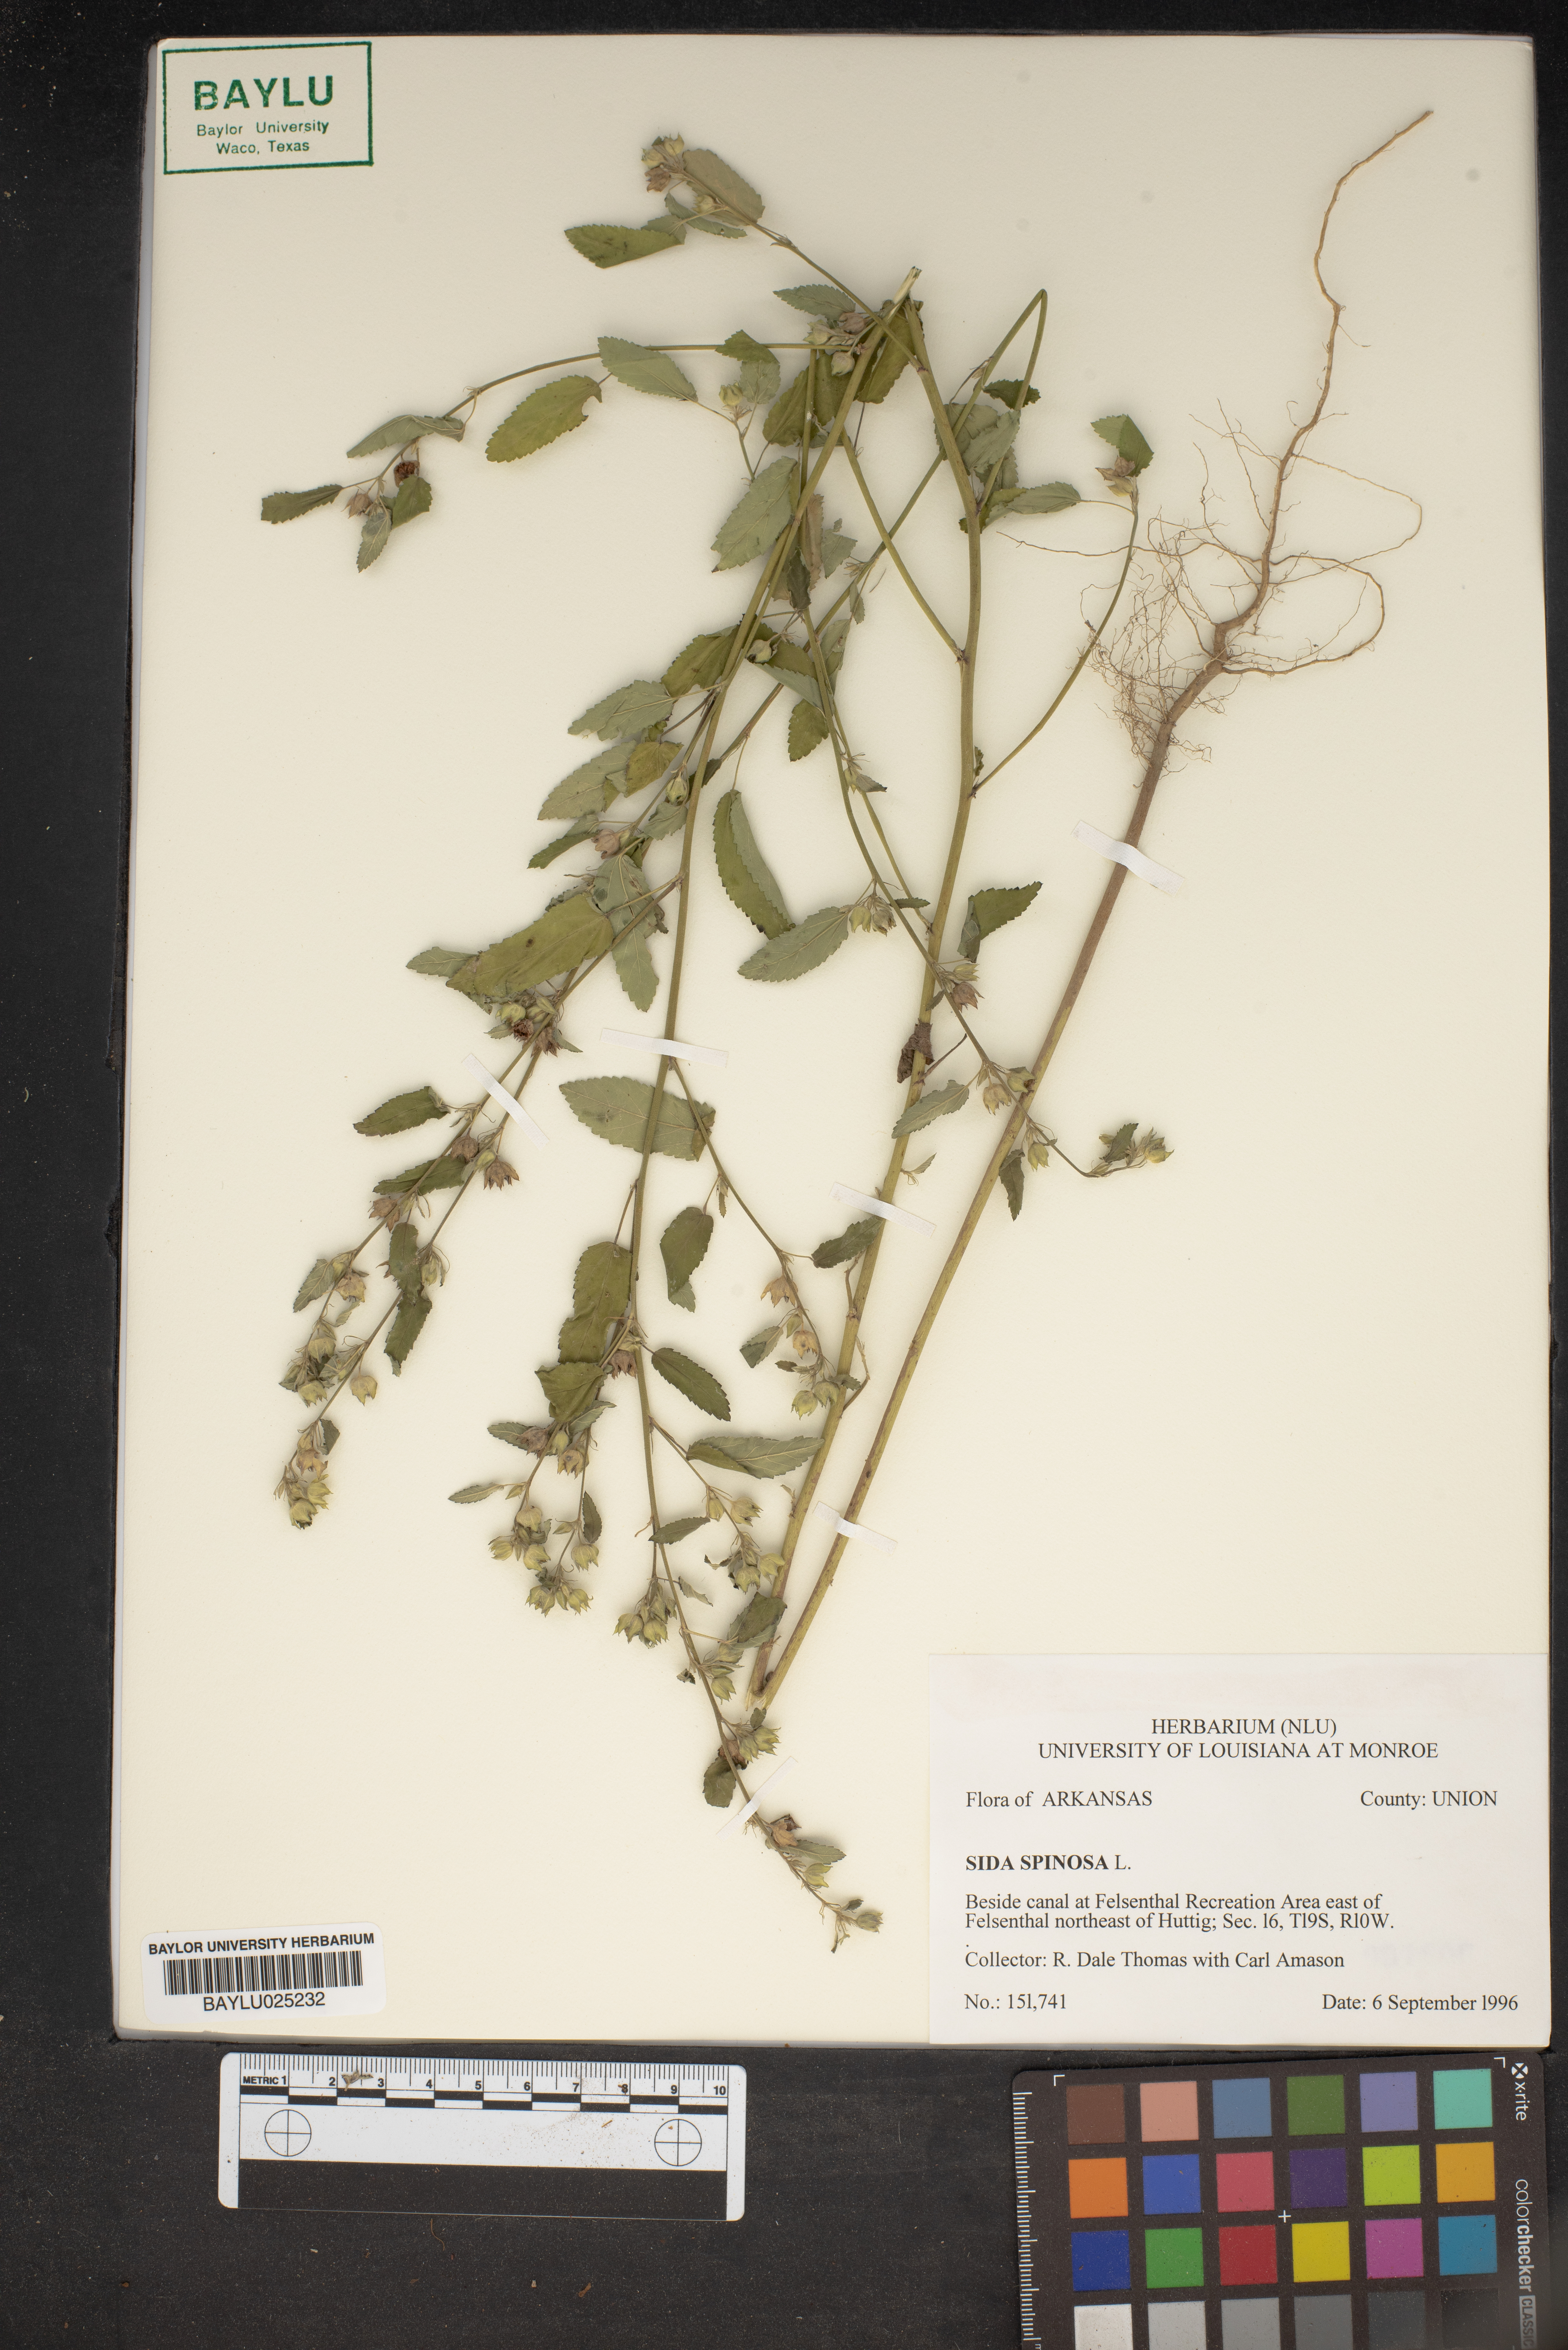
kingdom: Plantae
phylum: Tracheophyta
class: Magnoliopsida
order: Malvales
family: Malvaceae
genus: Sida
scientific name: Sida spinosa
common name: Prickly fanpetals
